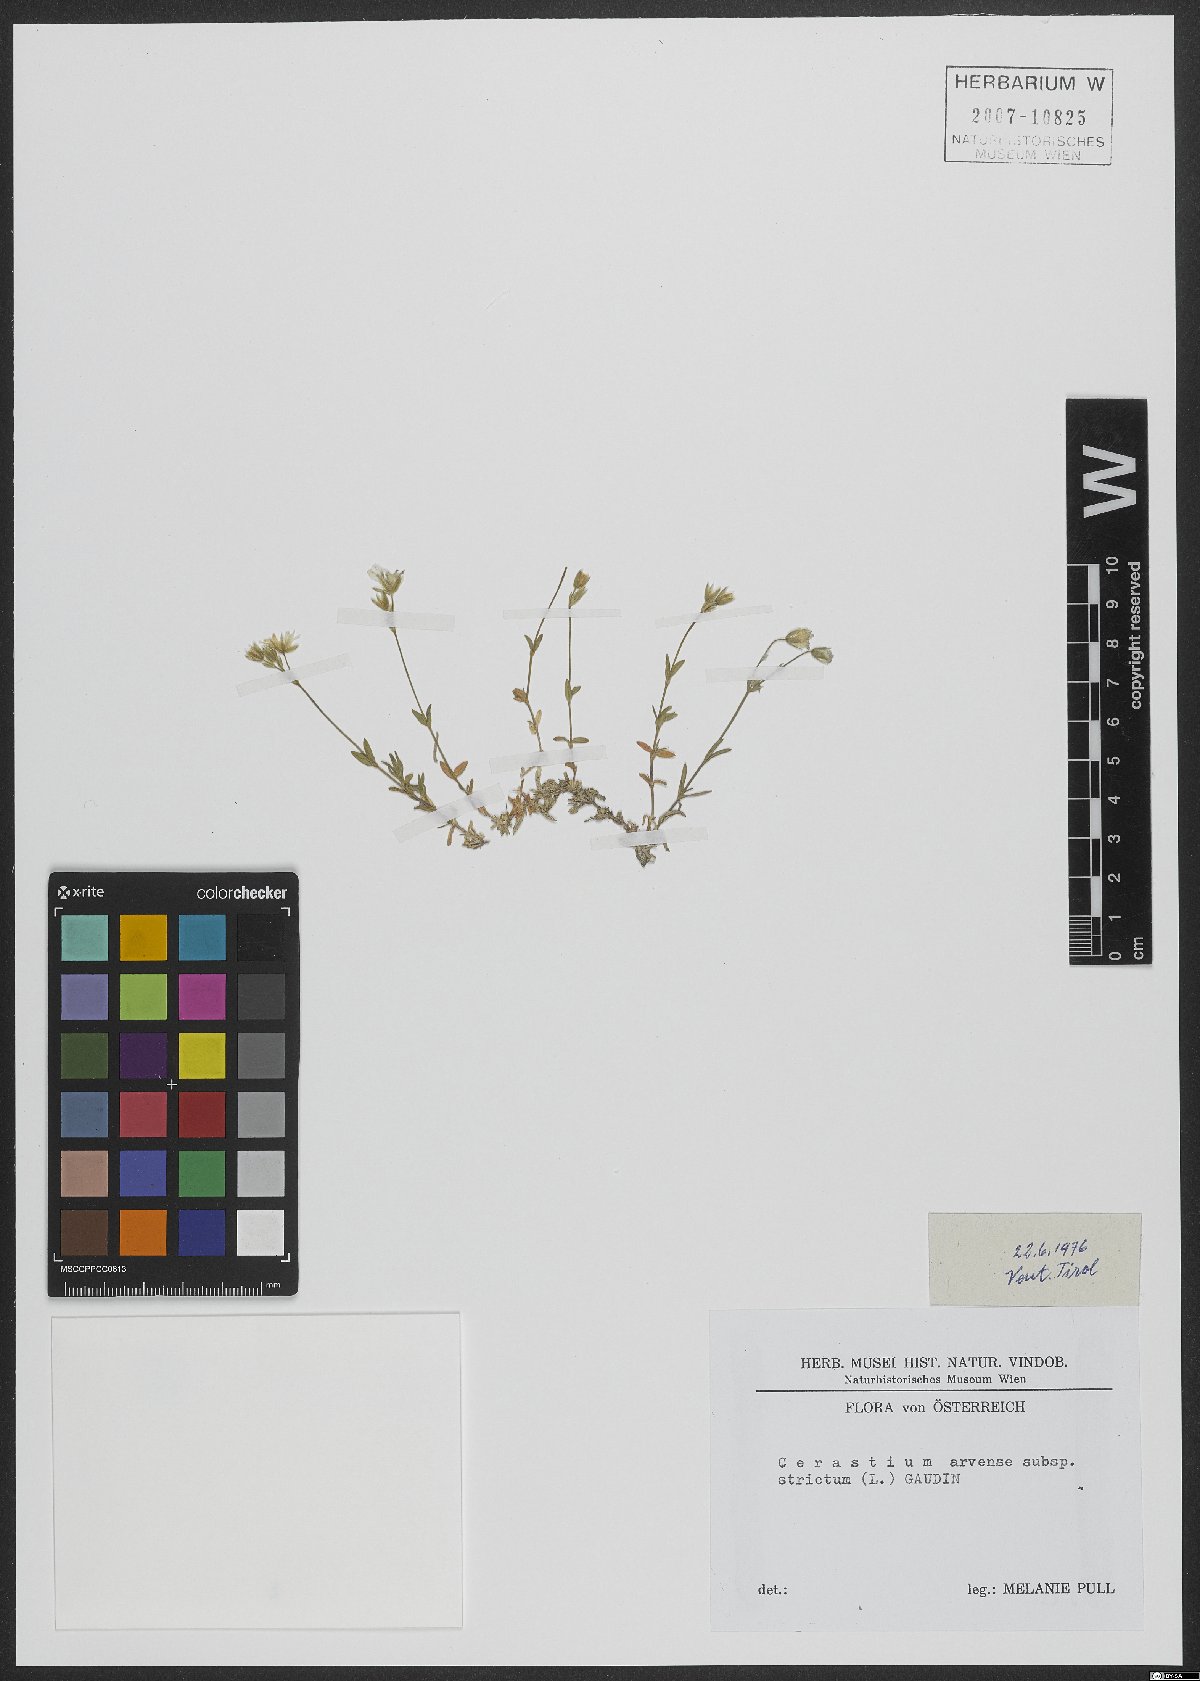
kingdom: Plantae
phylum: Tracheophyta
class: Magnoliopsida
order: Caryophyllales
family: Caryophyllaceae
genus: Cerastium
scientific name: Cerastium elongatum
